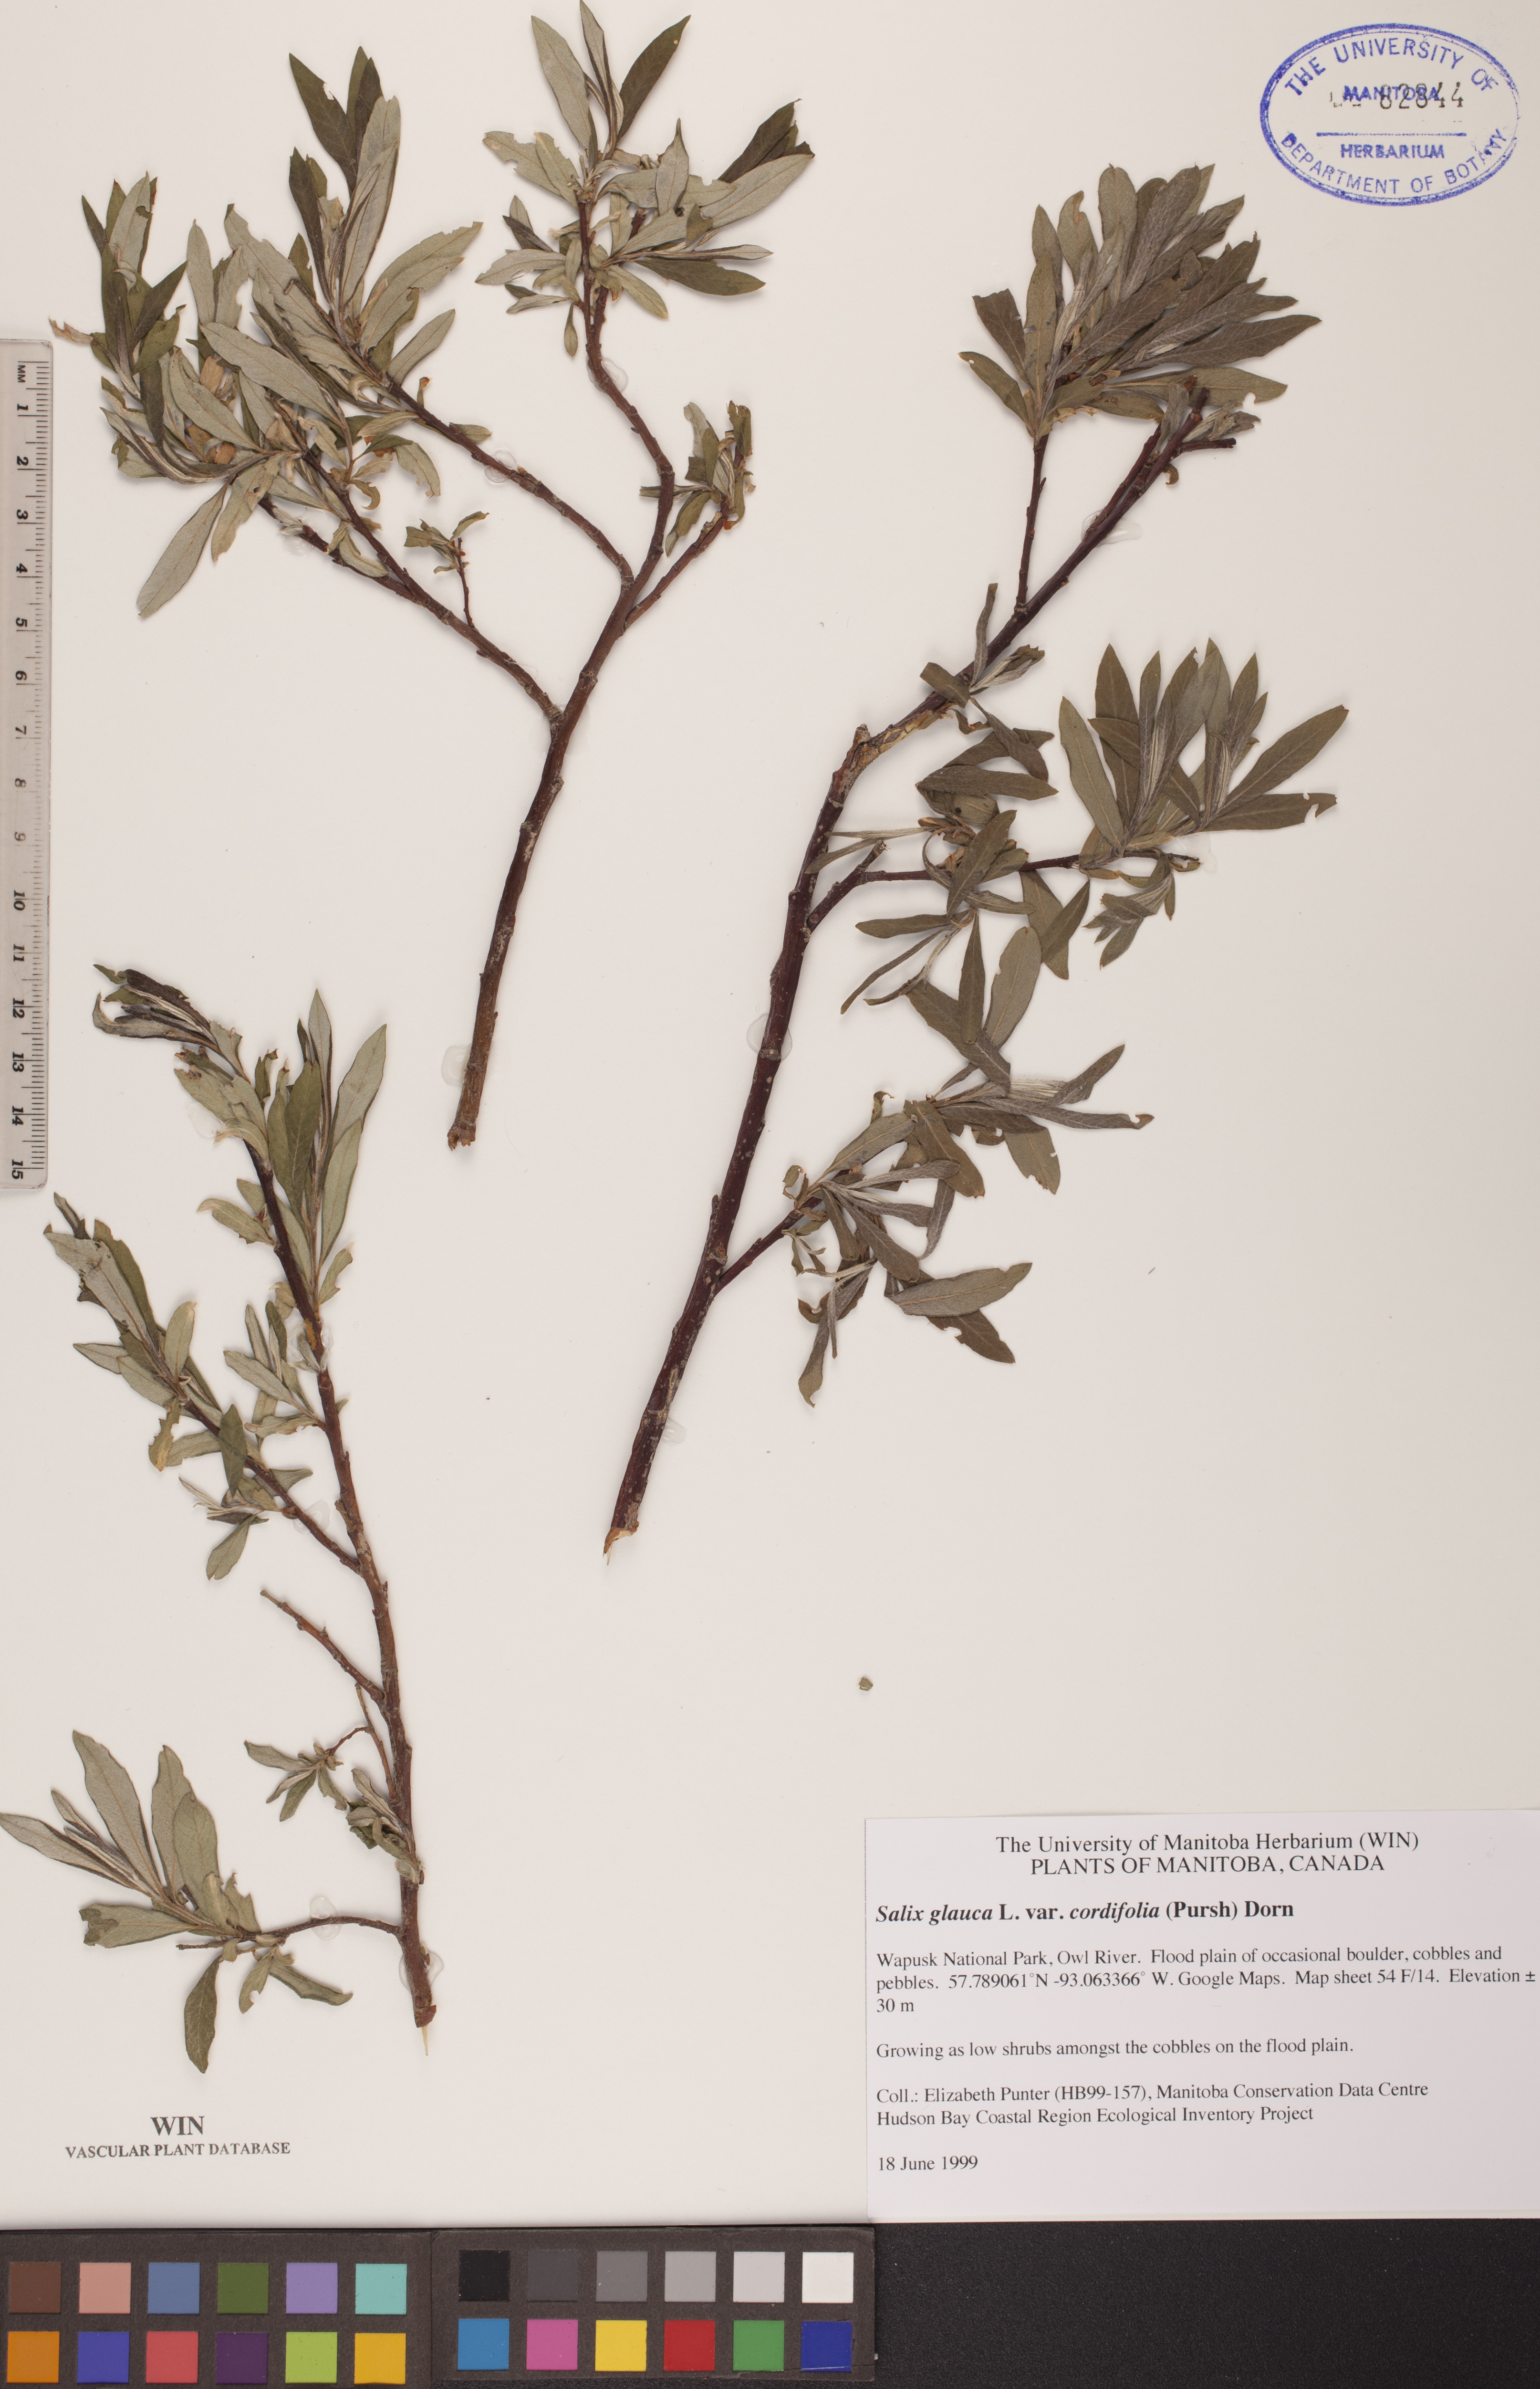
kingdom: Plantae
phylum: Tracheophyta
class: Magnoliopsida
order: Malpighiales
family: Salicaceae
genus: Salix
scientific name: Salix glauca
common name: Glaucous willow
